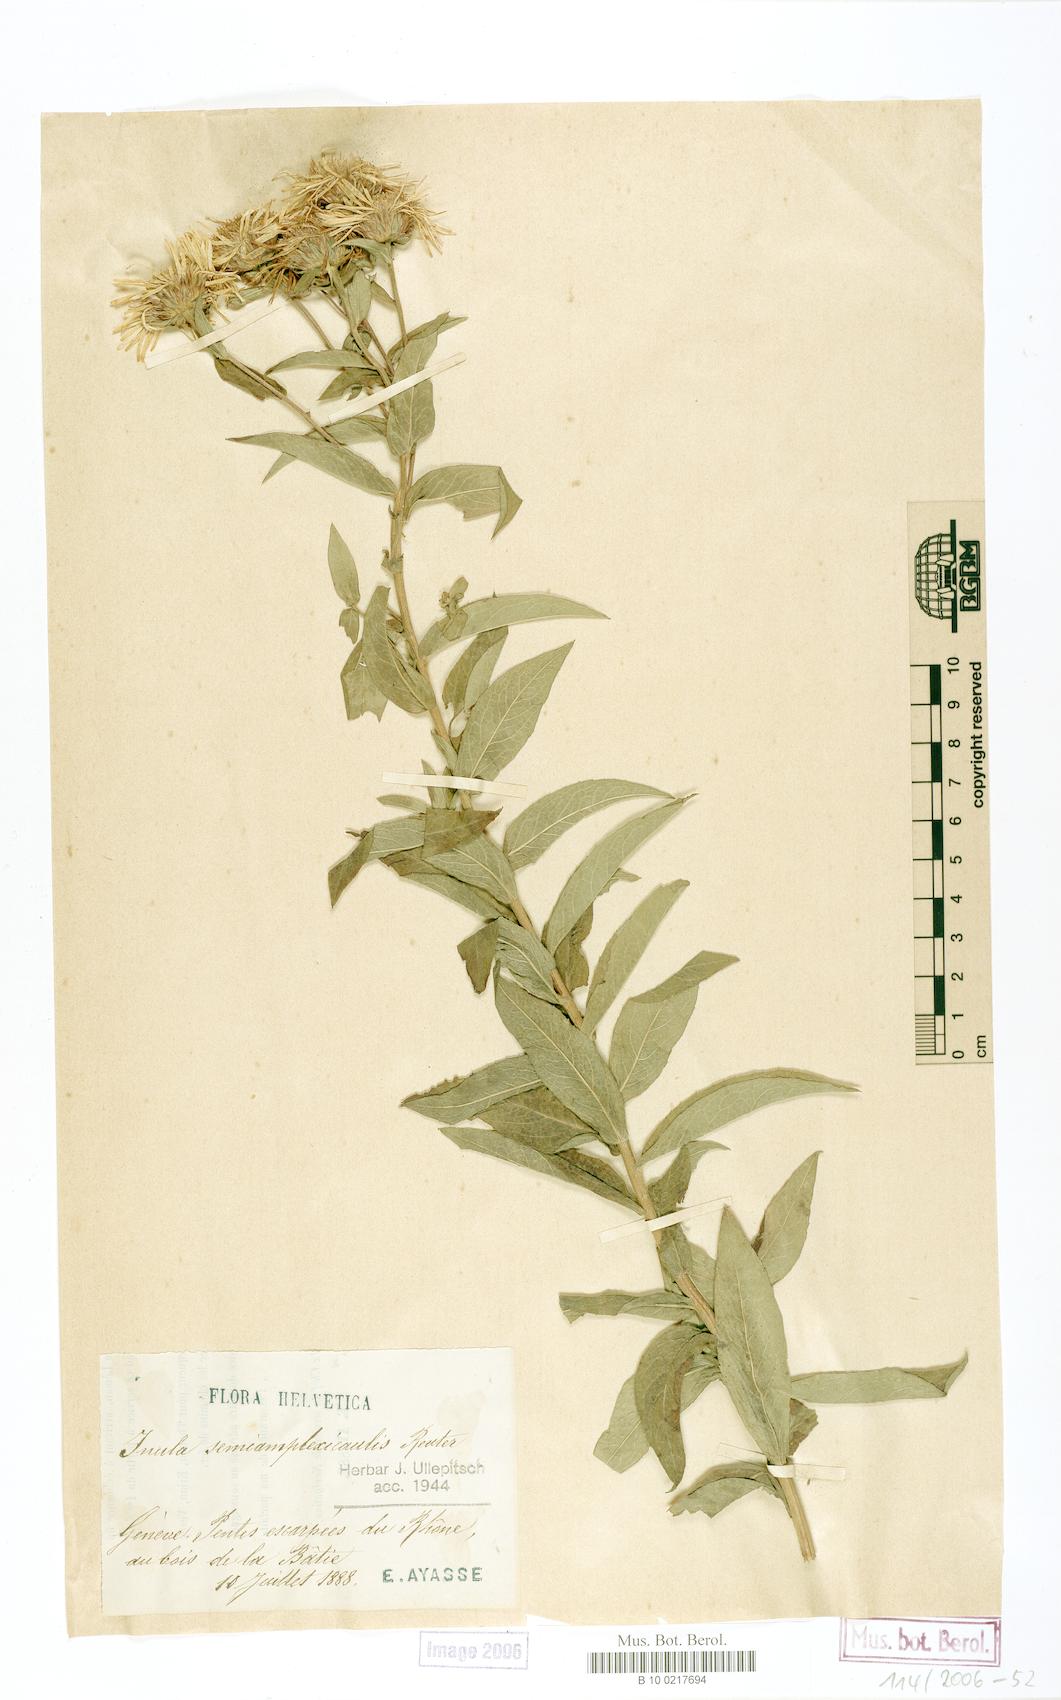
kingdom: Plantae
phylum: Tracheophyta
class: Magnoliopsida
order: Asterales
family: Asteraceae
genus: Pentanema
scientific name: Pentanema salicinum
